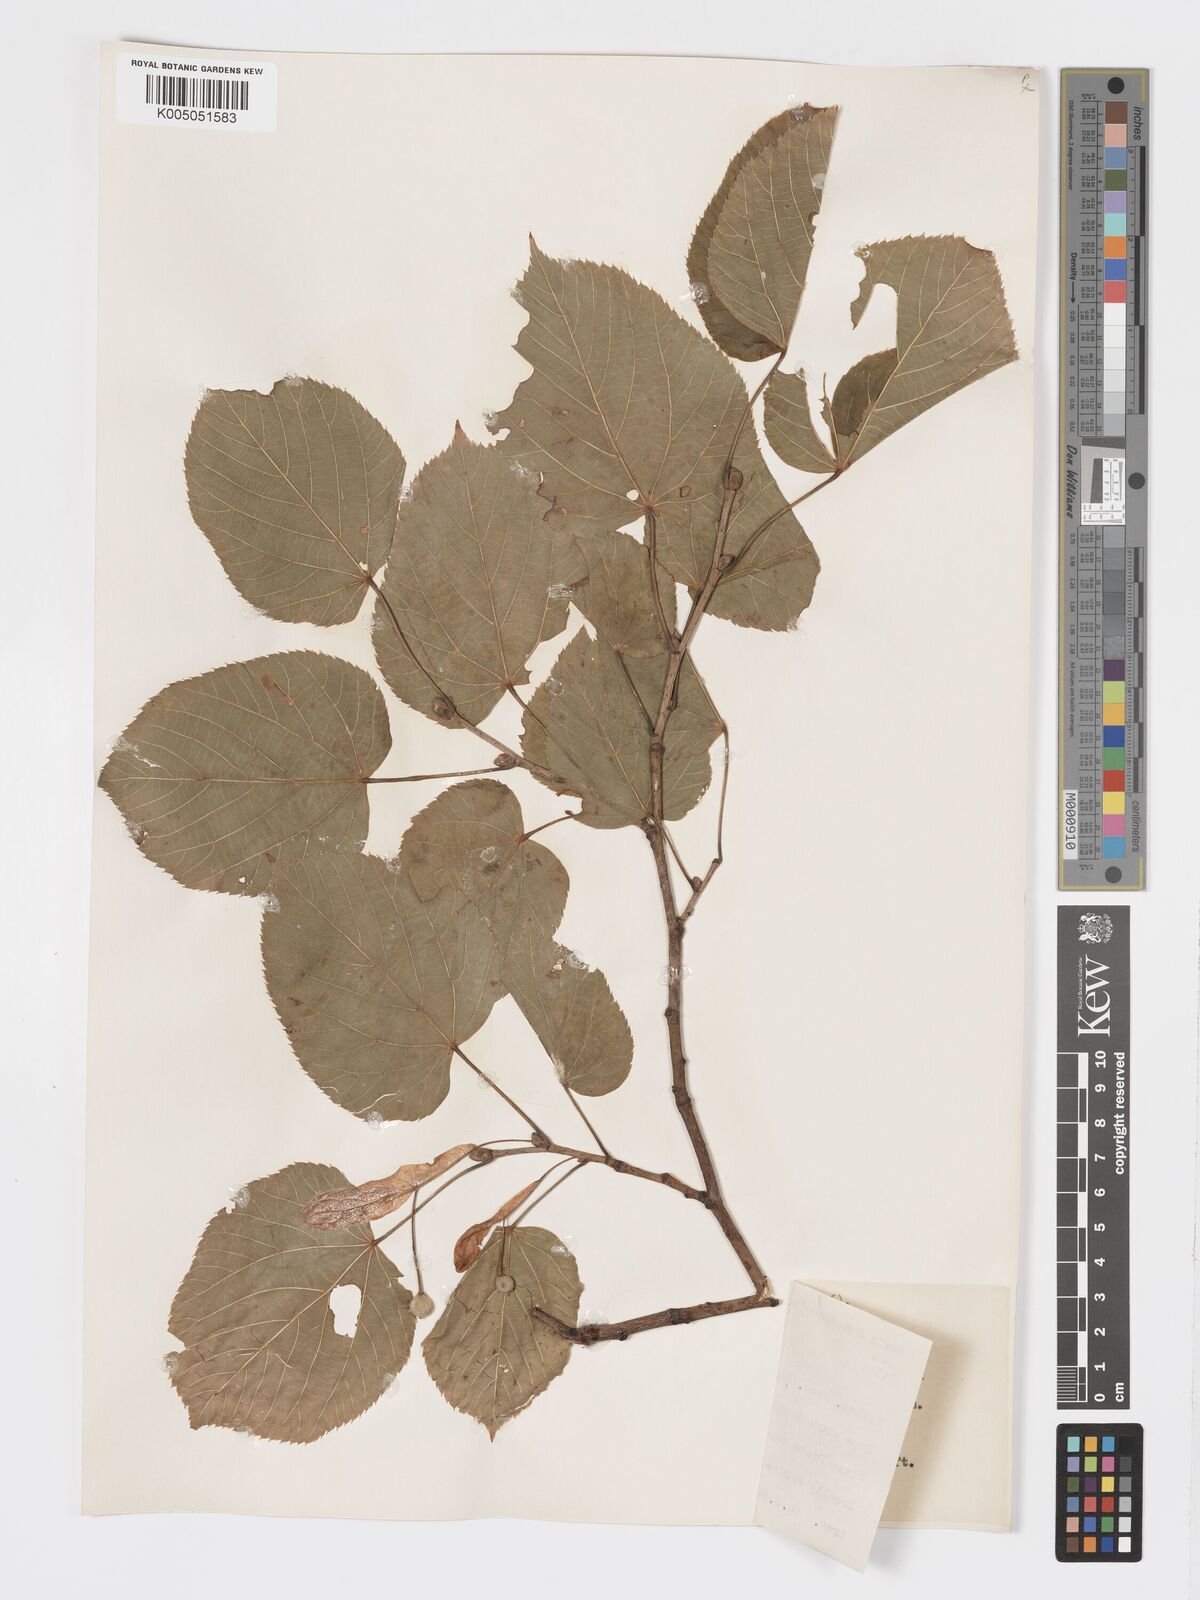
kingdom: Plantae
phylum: Tracheophyta
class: Magnoliopsida
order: Malvales
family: Malvaceae
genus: Tilia
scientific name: Tilia
